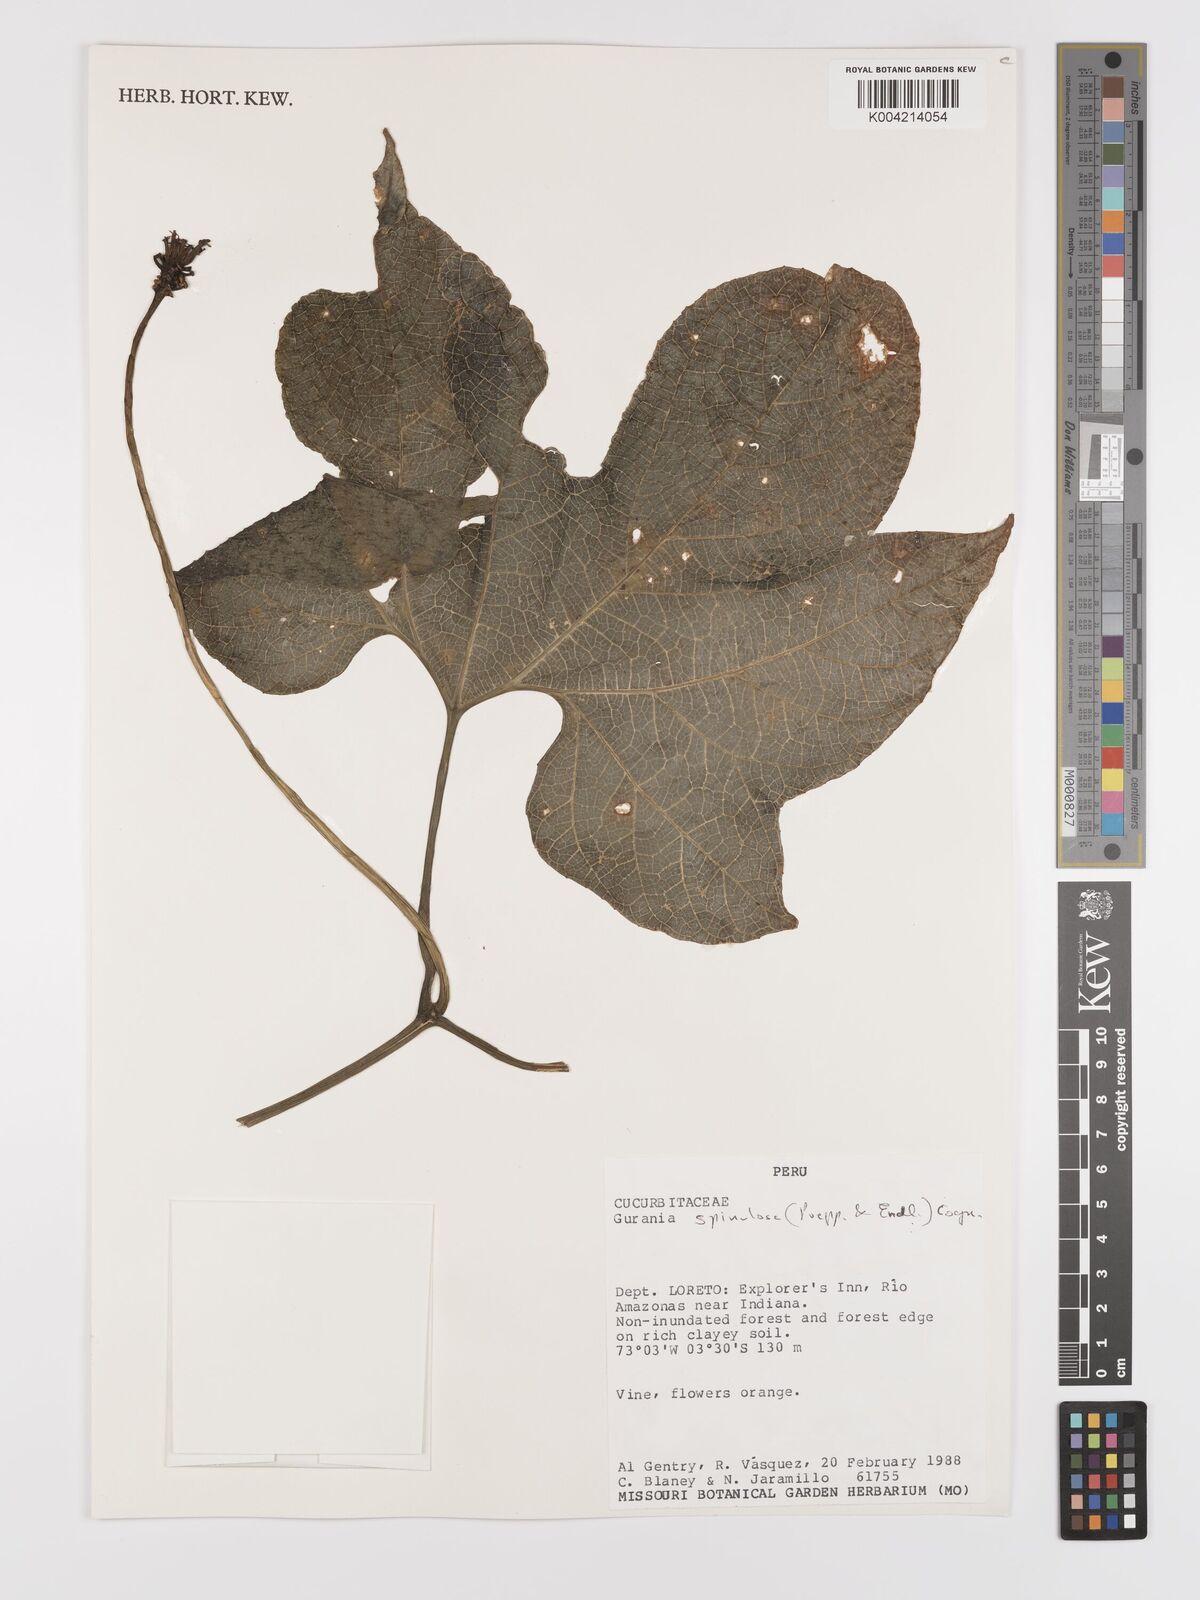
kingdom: Plantae
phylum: Tracheophyta
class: Magnoliopsida
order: Cucurbitales
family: Cucurbitaceae
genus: Gurania
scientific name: Gurania lobata
